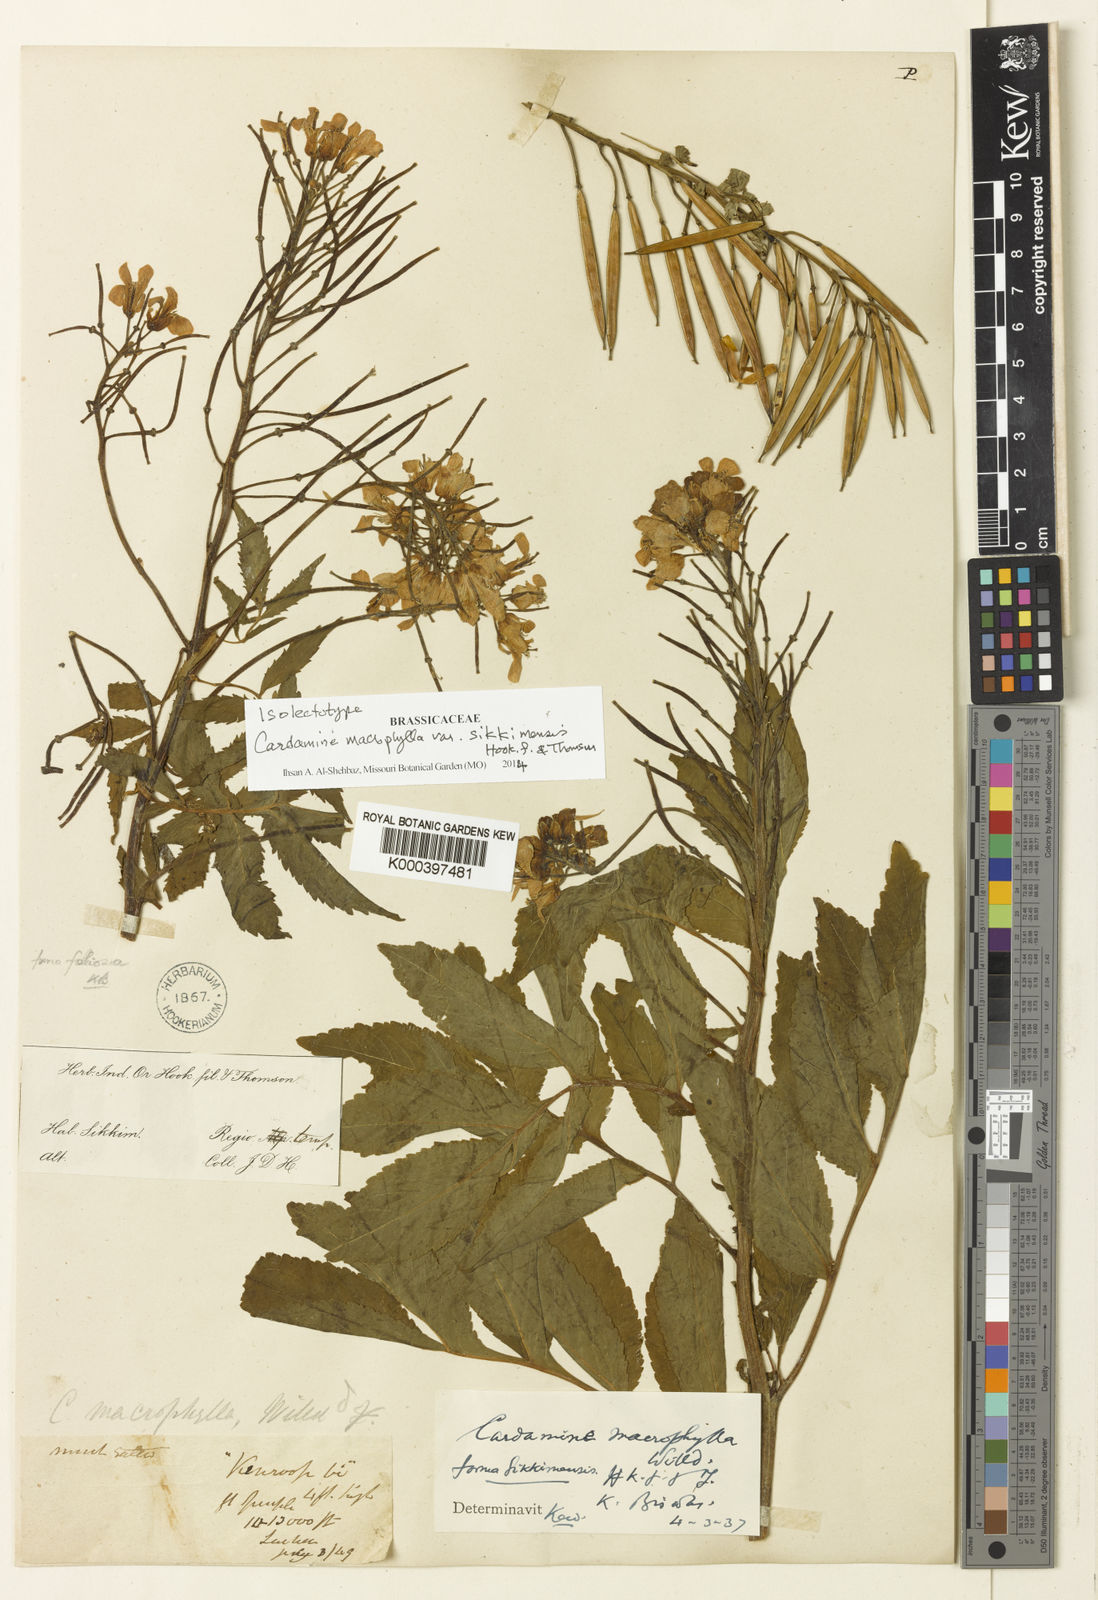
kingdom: Plantae
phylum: Tracheophyta
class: Magnoliopsida
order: Brassicales
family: Brassicaceae
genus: Cardamine
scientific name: Cardamine macrophylla
